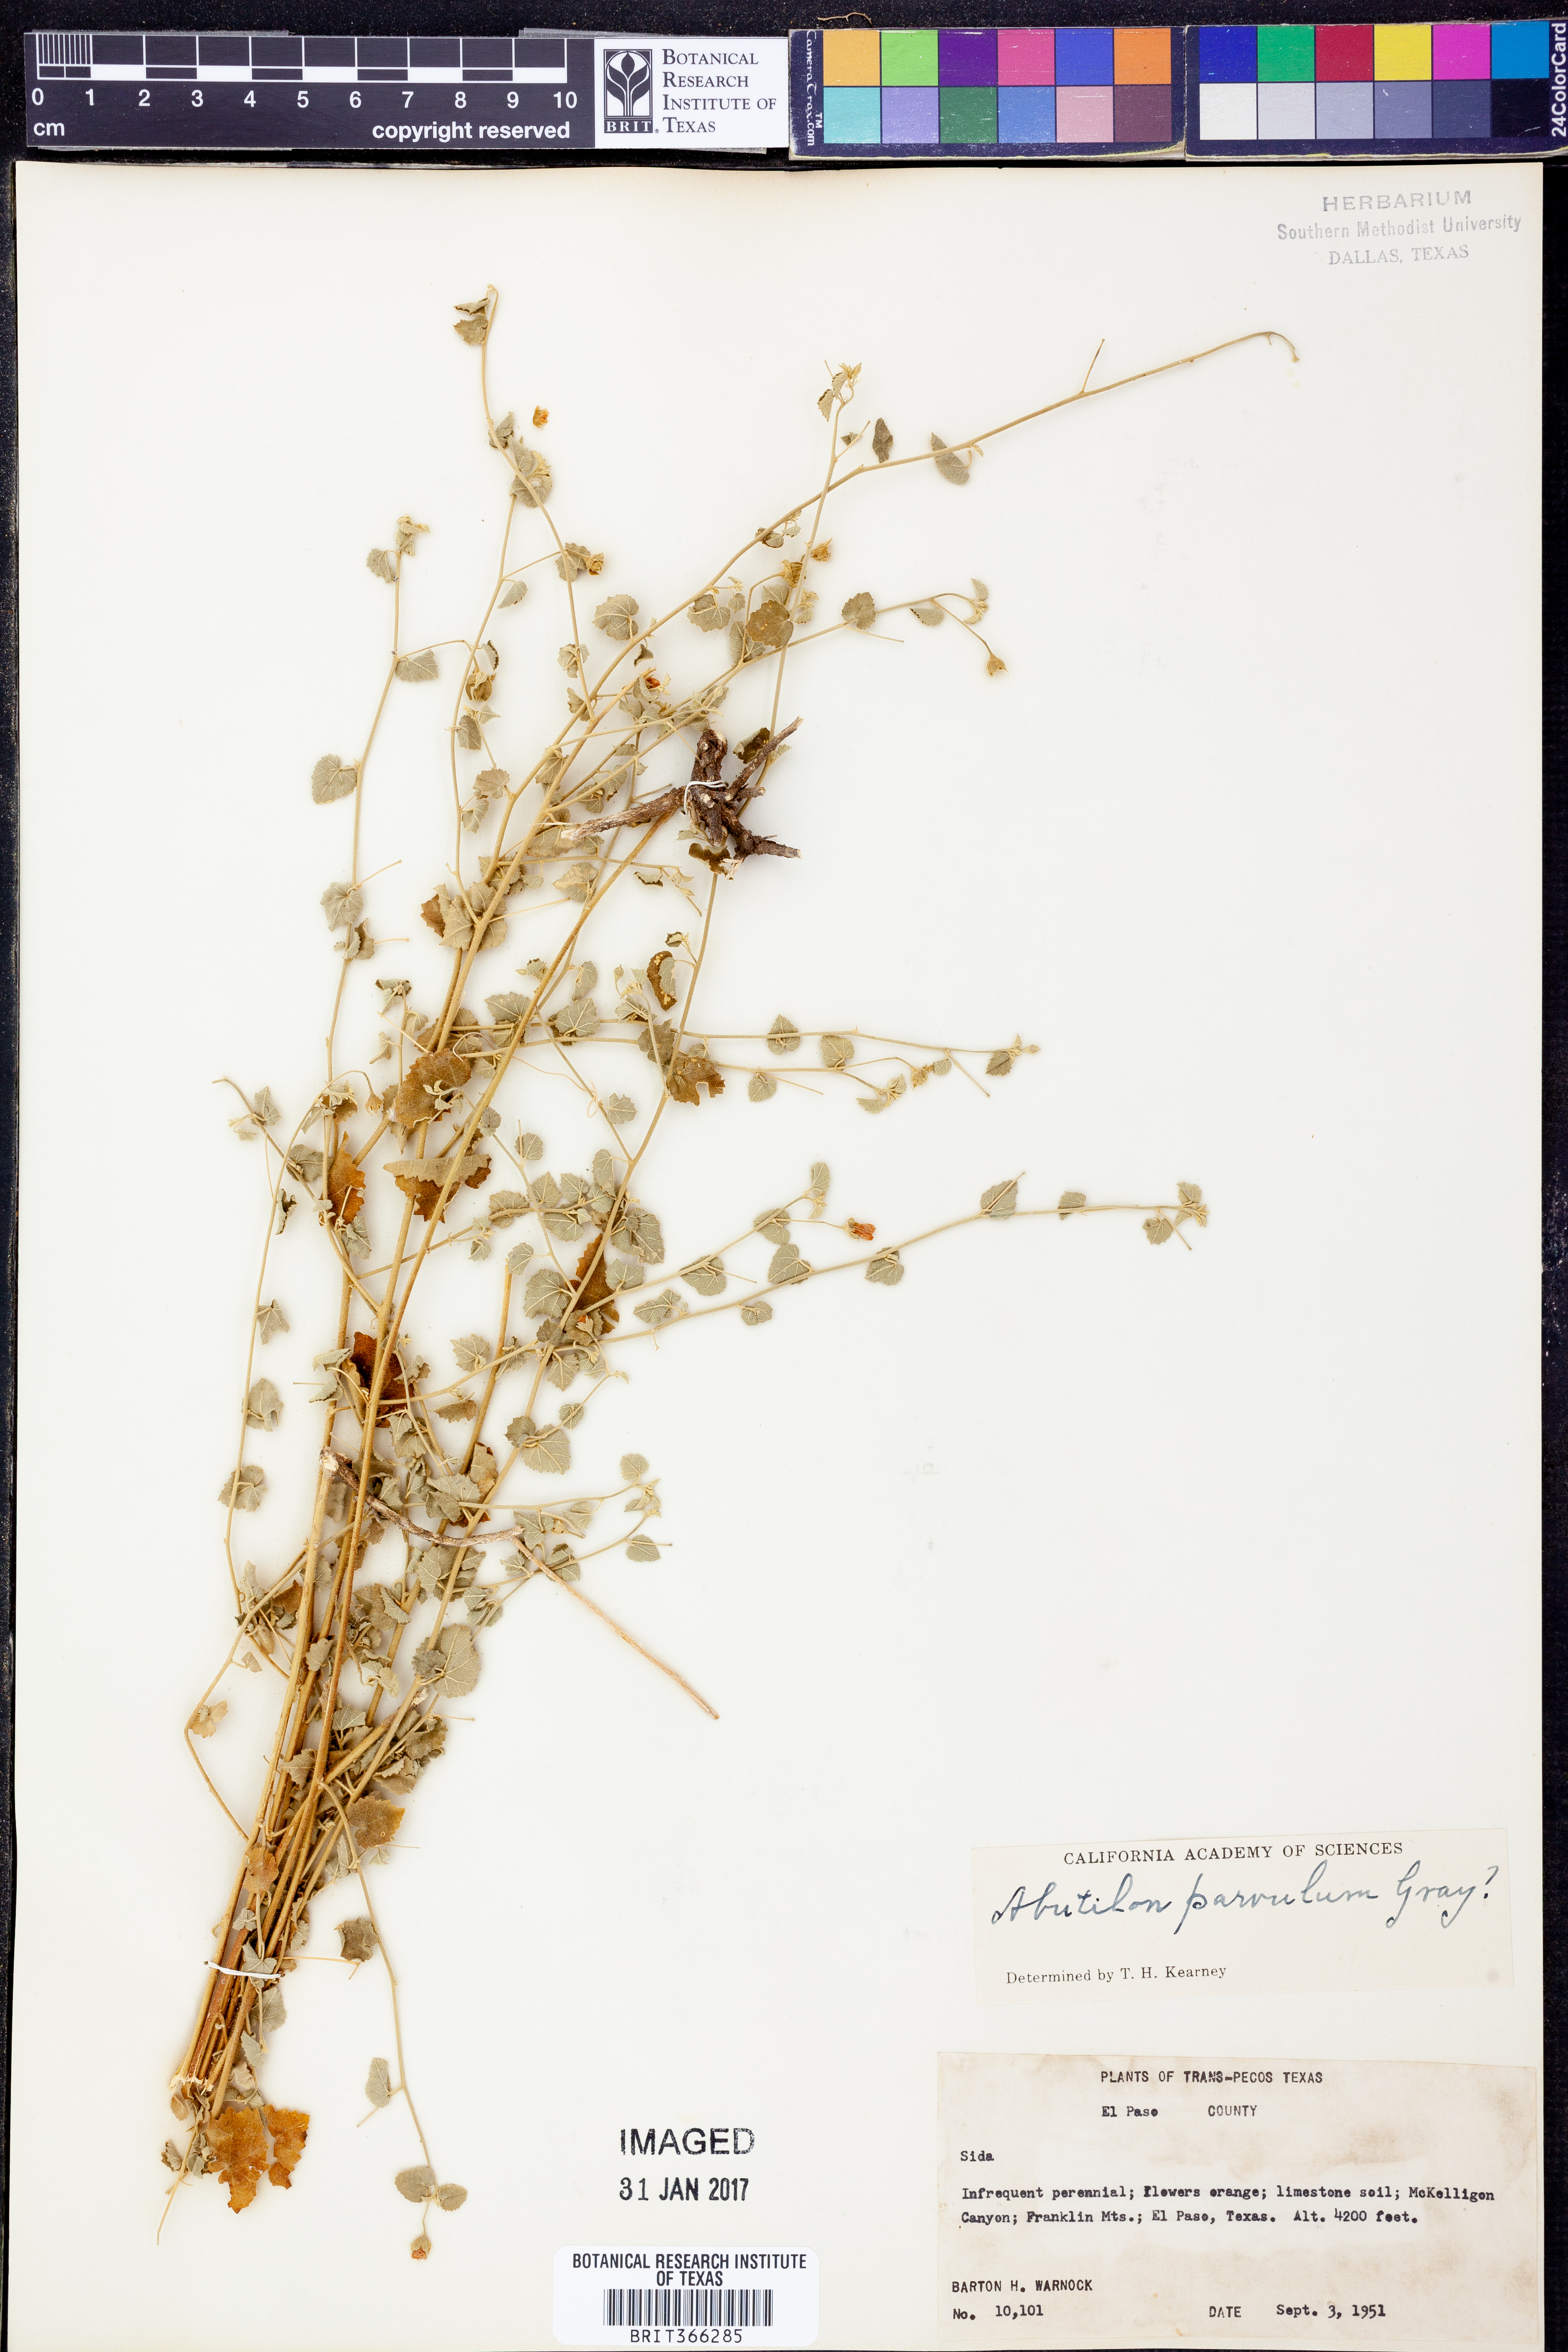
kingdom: Plantae
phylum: Tracheophyta
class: Magnoliopsida
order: Malvales
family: Malvaceae
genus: Abutilon
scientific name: Abutilon parvulum
